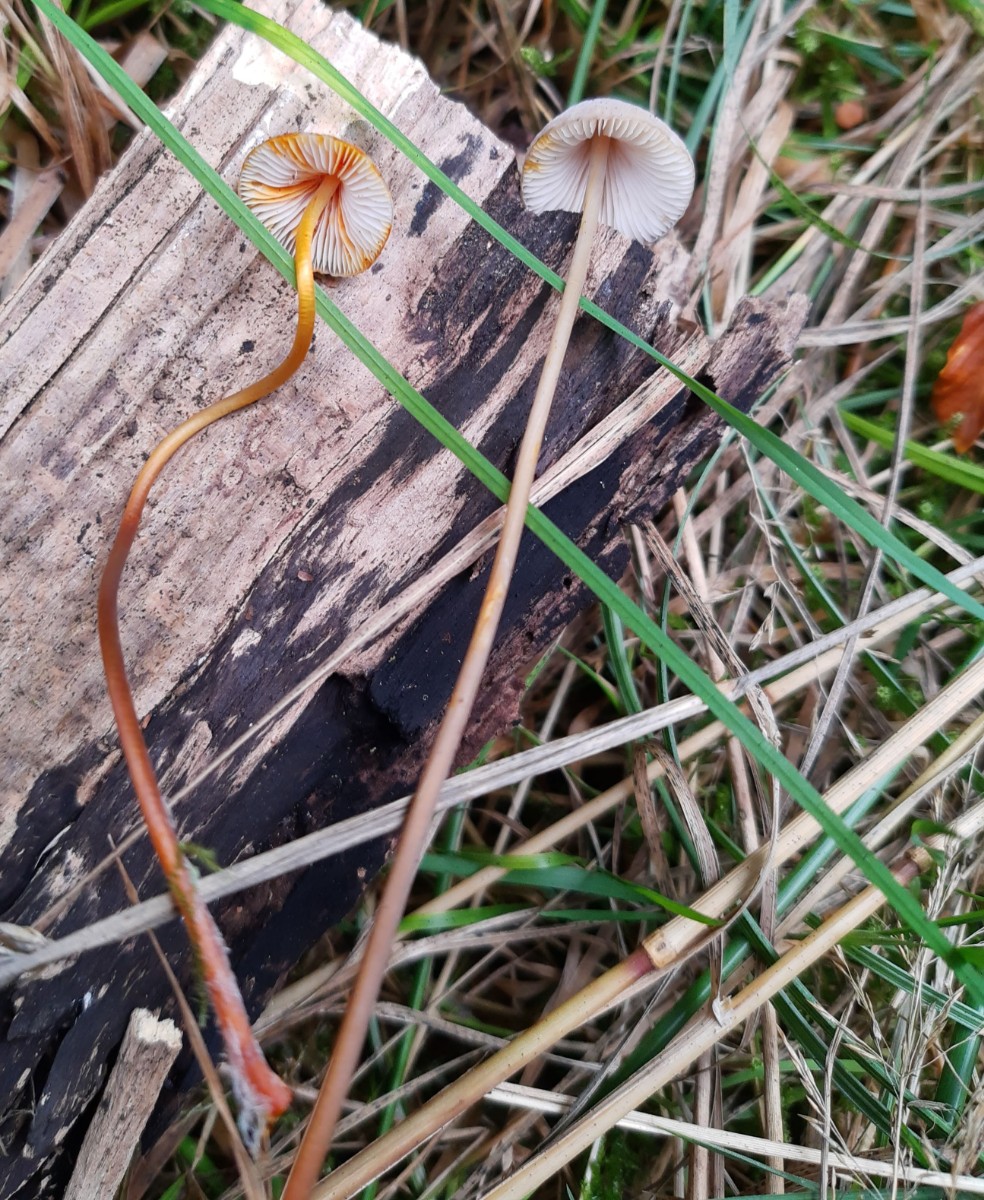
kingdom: Fungi
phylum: Basidiomycota
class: Agaricomycetes
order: Agaricales
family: Mycenaceae
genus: Mycena
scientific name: Mycena crocata
